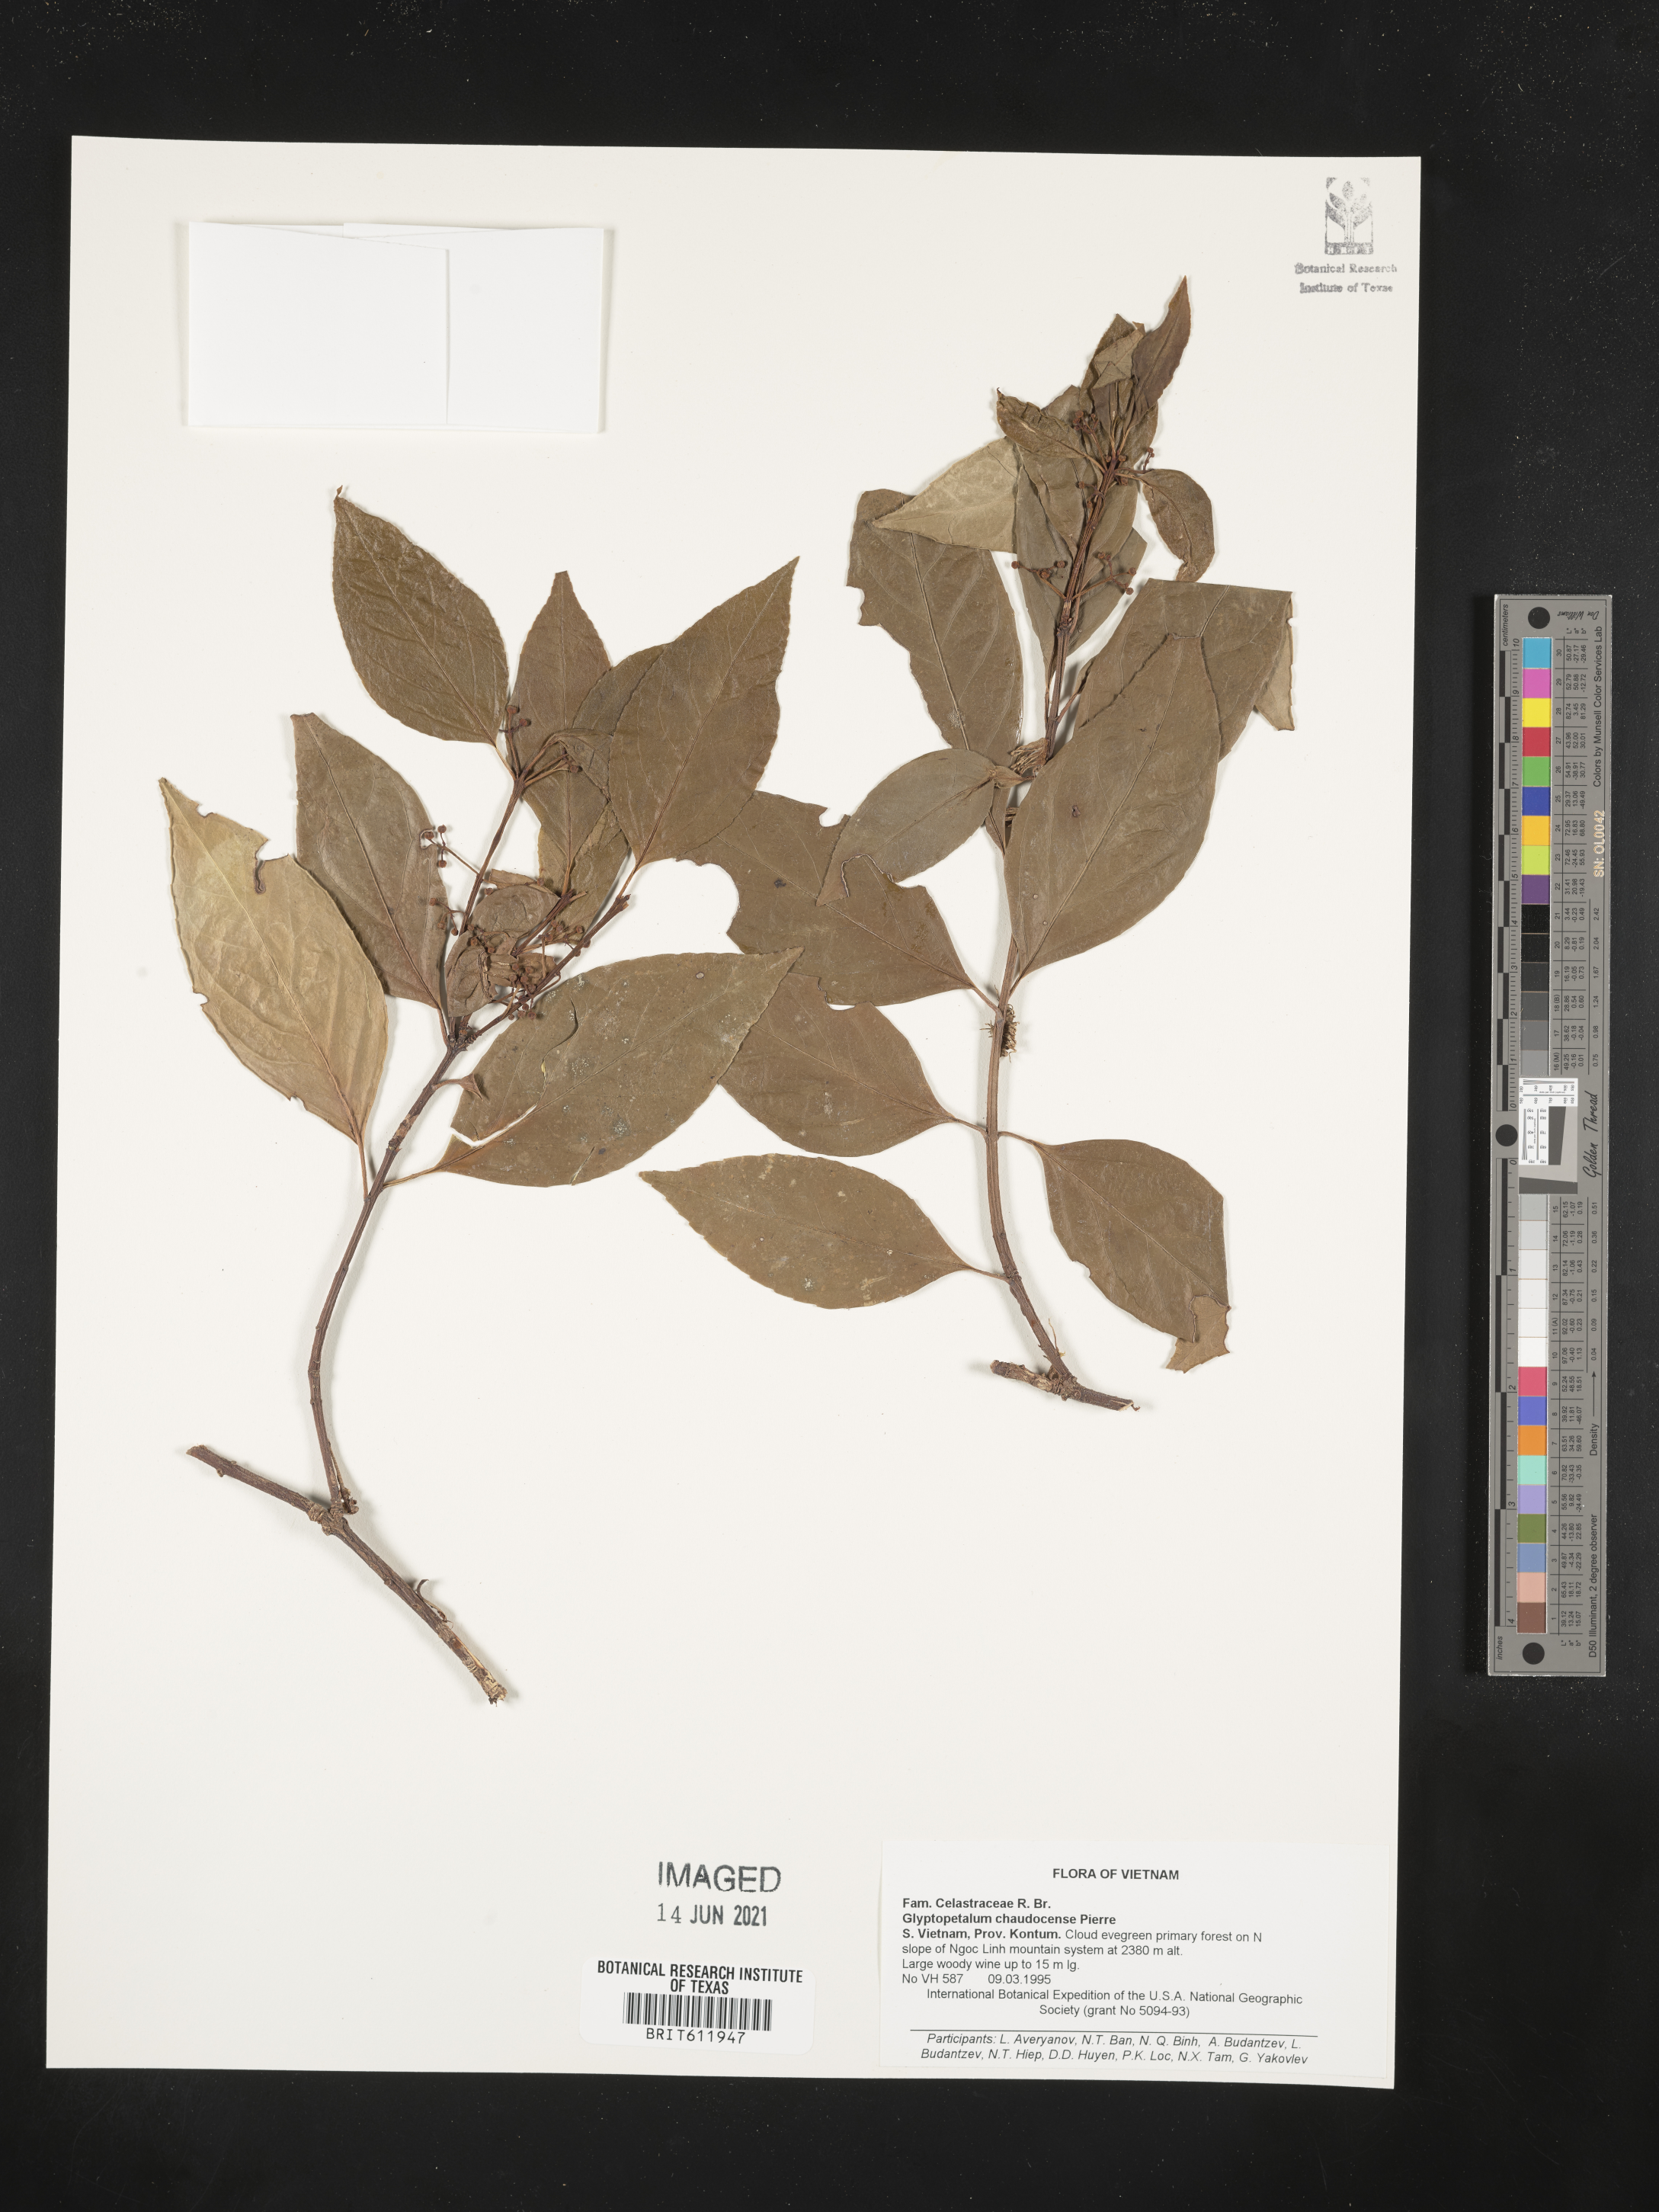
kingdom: Plantae
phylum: Tracheophyta
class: Magnoliopsida
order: Celastrales
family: Celastraceae
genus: Euonymus
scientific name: Euonymus chaudocensis
